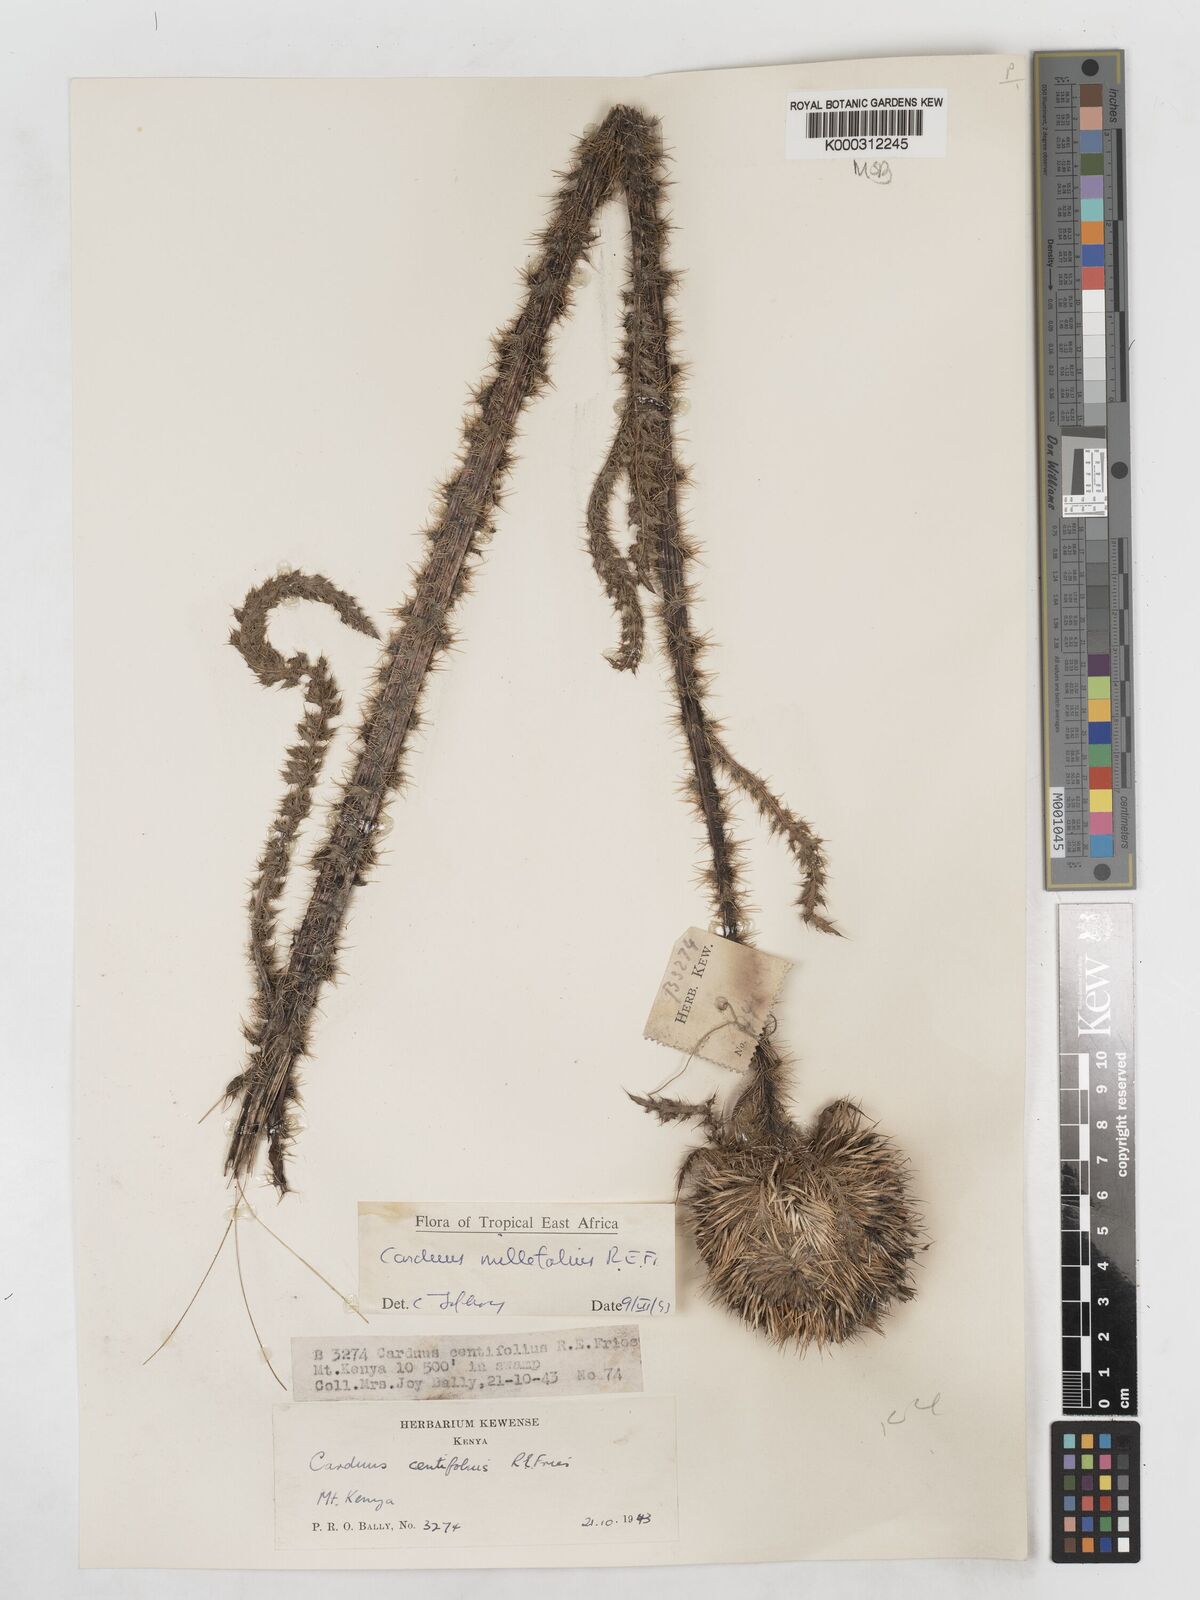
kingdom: Plantae
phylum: Tracheophyta
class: Magnoliopsida
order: Asterales
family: Asteraceae
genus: Carduus
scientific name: Carduus millefolius
